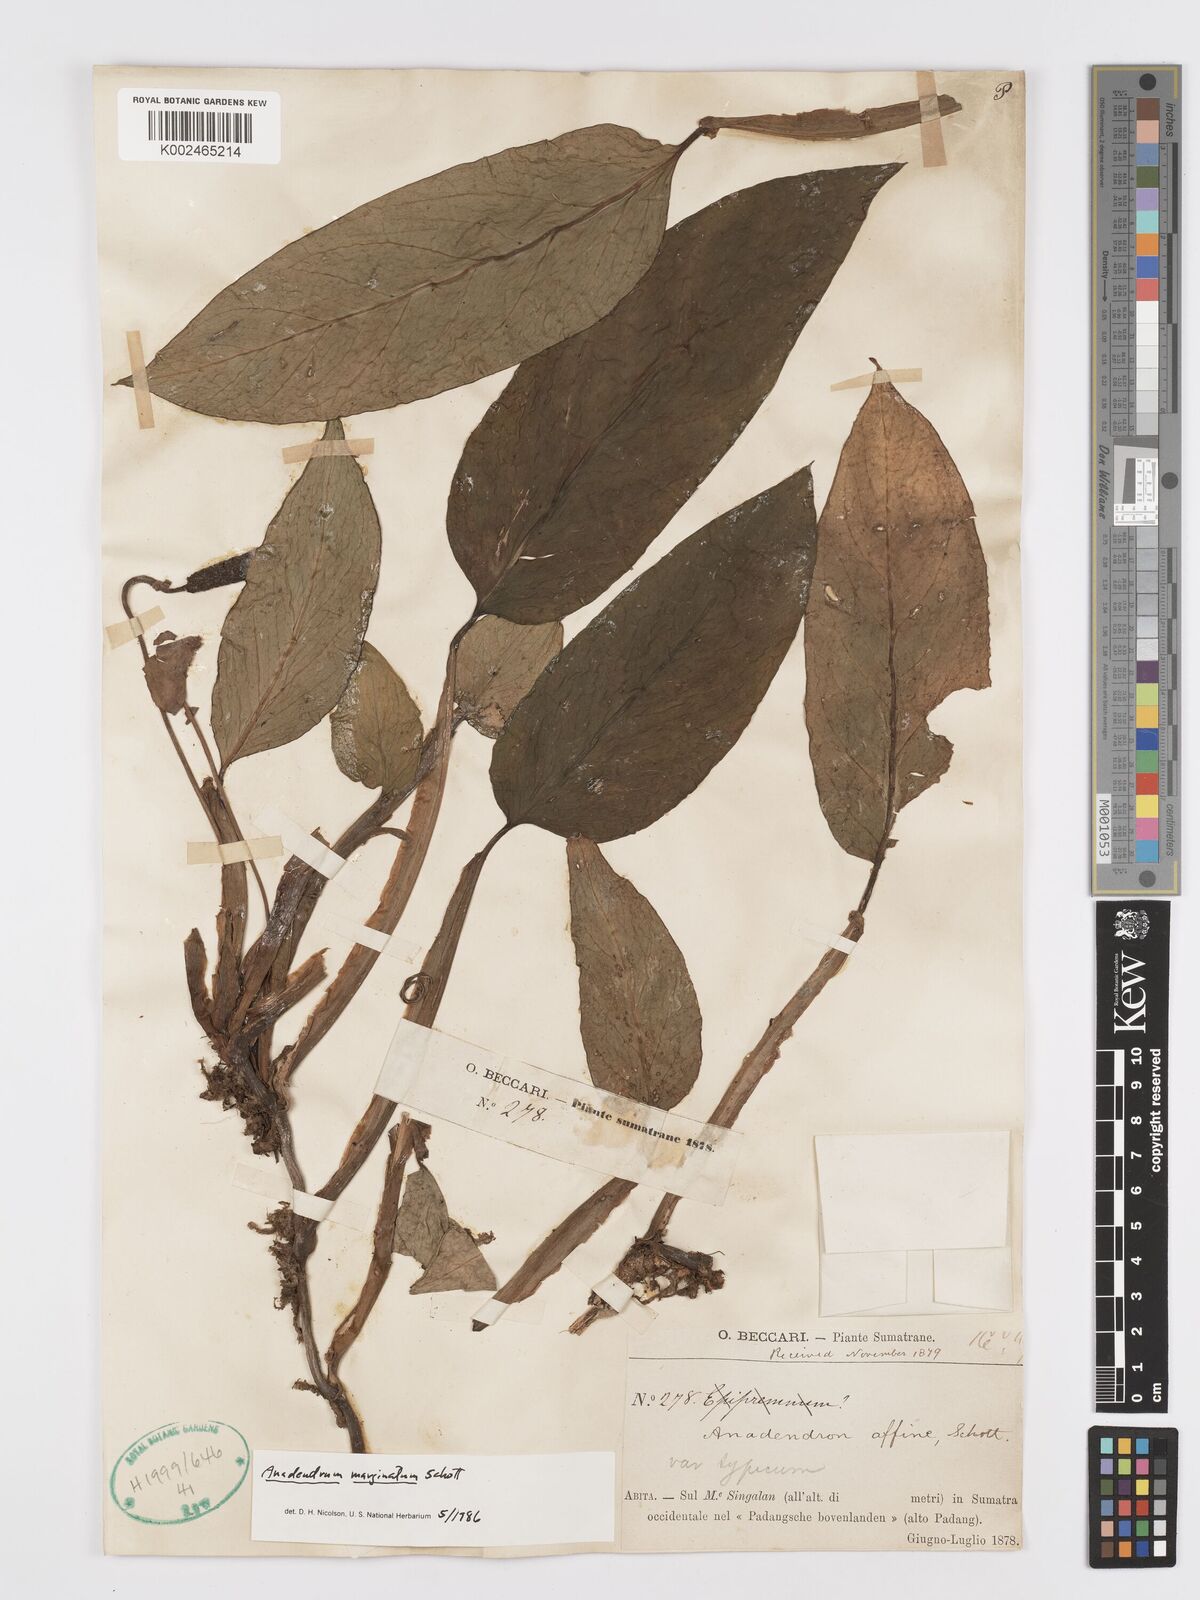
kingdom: Plantae
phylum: Tracheophyta
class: Liliopsida
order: Alismatales
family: Araceae
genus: Anadendrum
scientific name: Anadendrum marginatum
